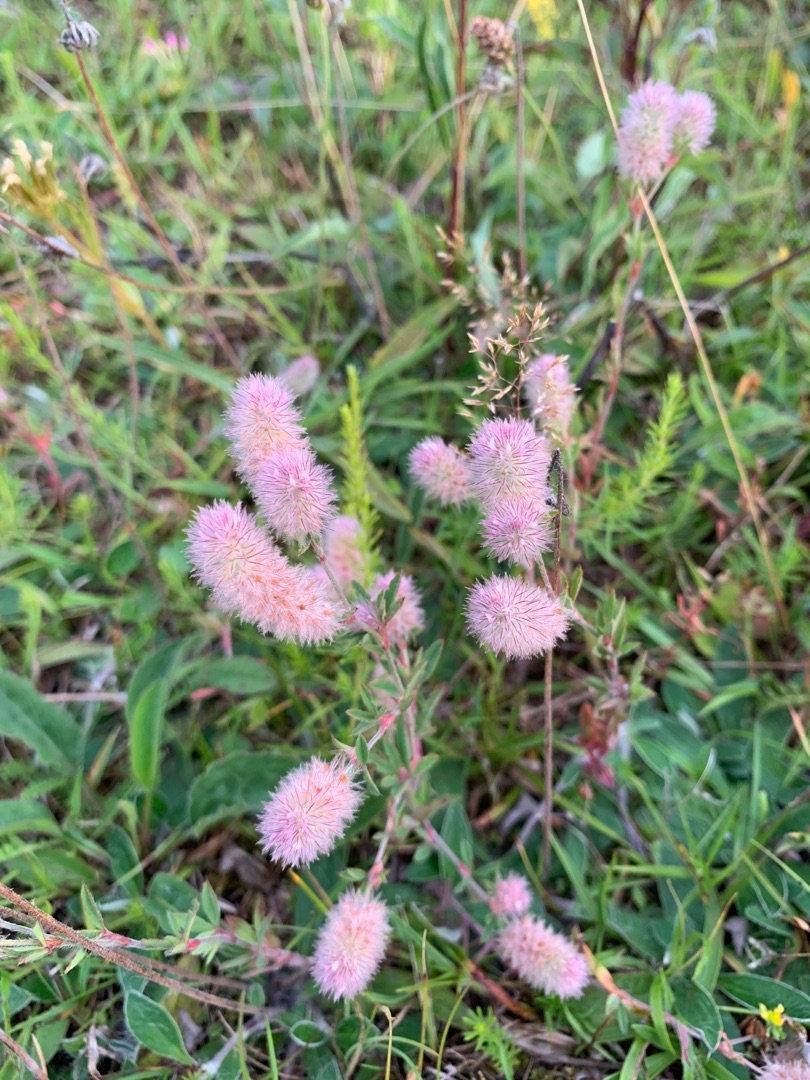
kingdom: Plantae
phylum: Tracheophyta
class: Magnoliopsida
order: Fabales
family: Fabaceae
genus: Trifolium
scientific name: Trifolium arvense
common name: Hare-kløver
